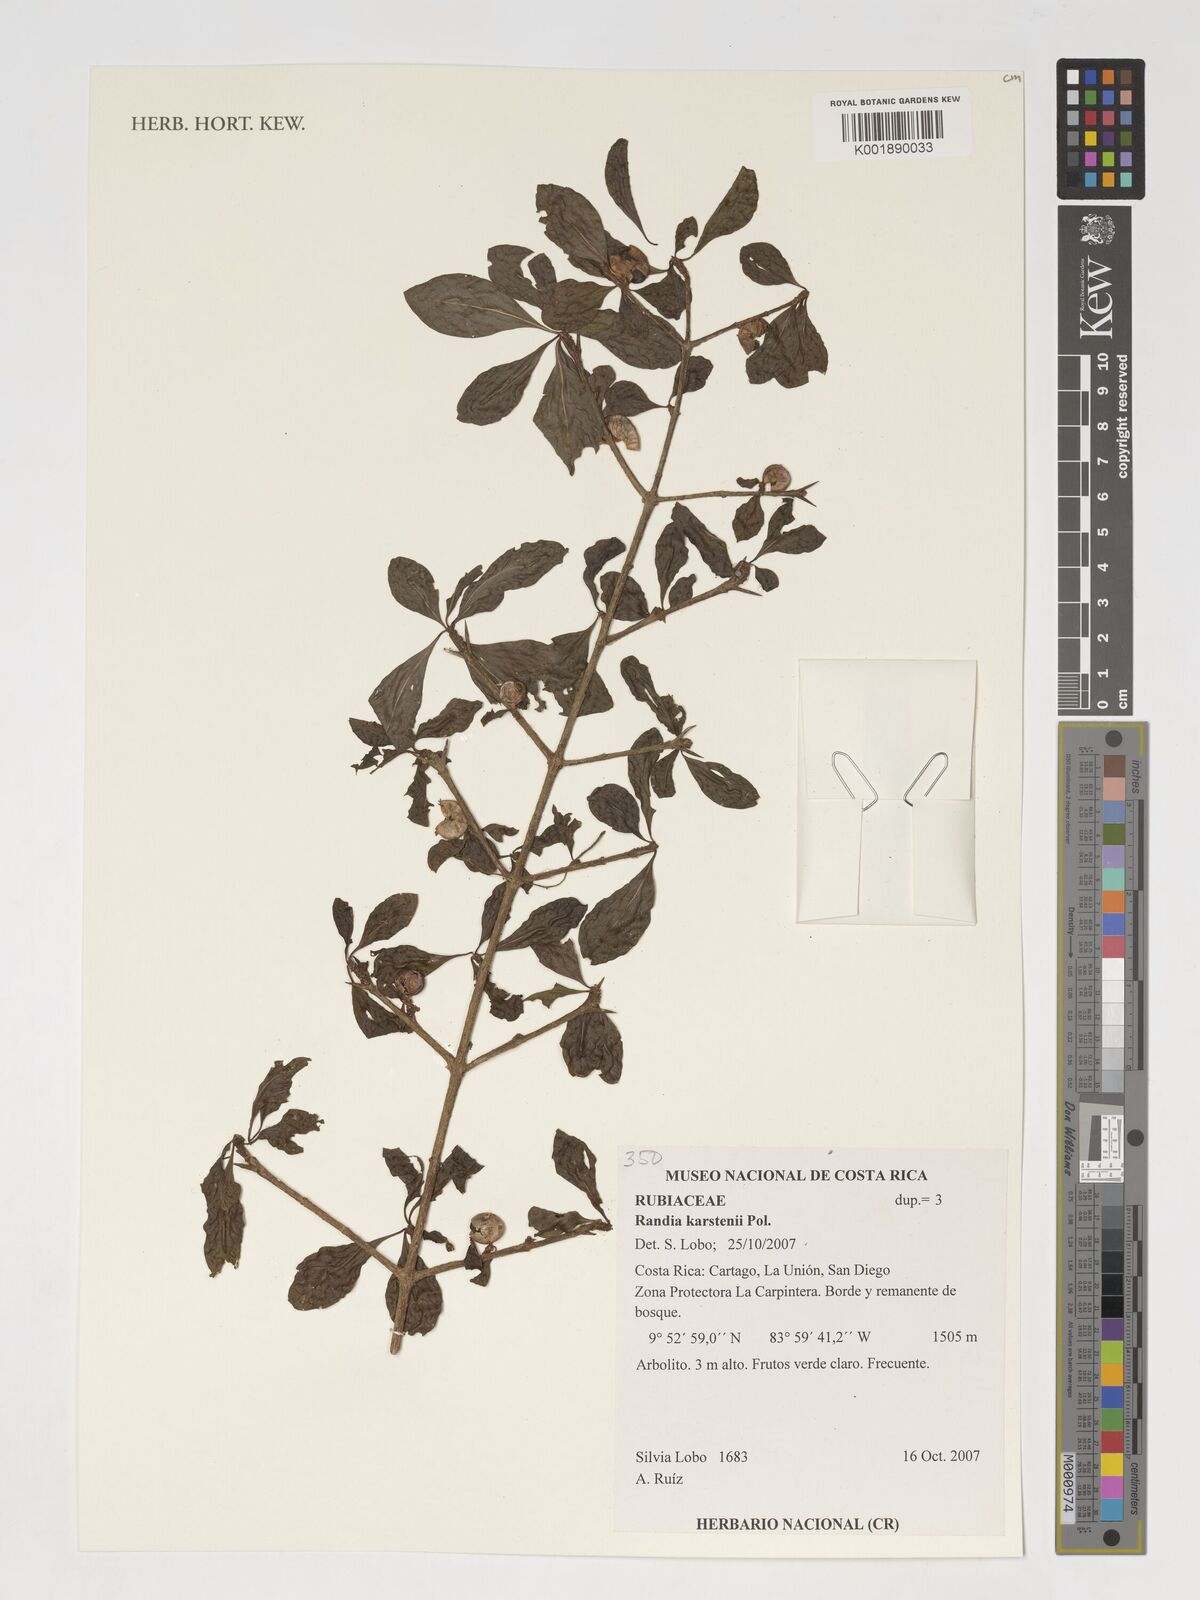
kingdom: Plantae
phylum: Tracheophyta
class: Magnoliopsida
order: Gentianales
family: Rubiaceae
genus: Randia
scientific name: Randia aculeata
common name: Inkberry
